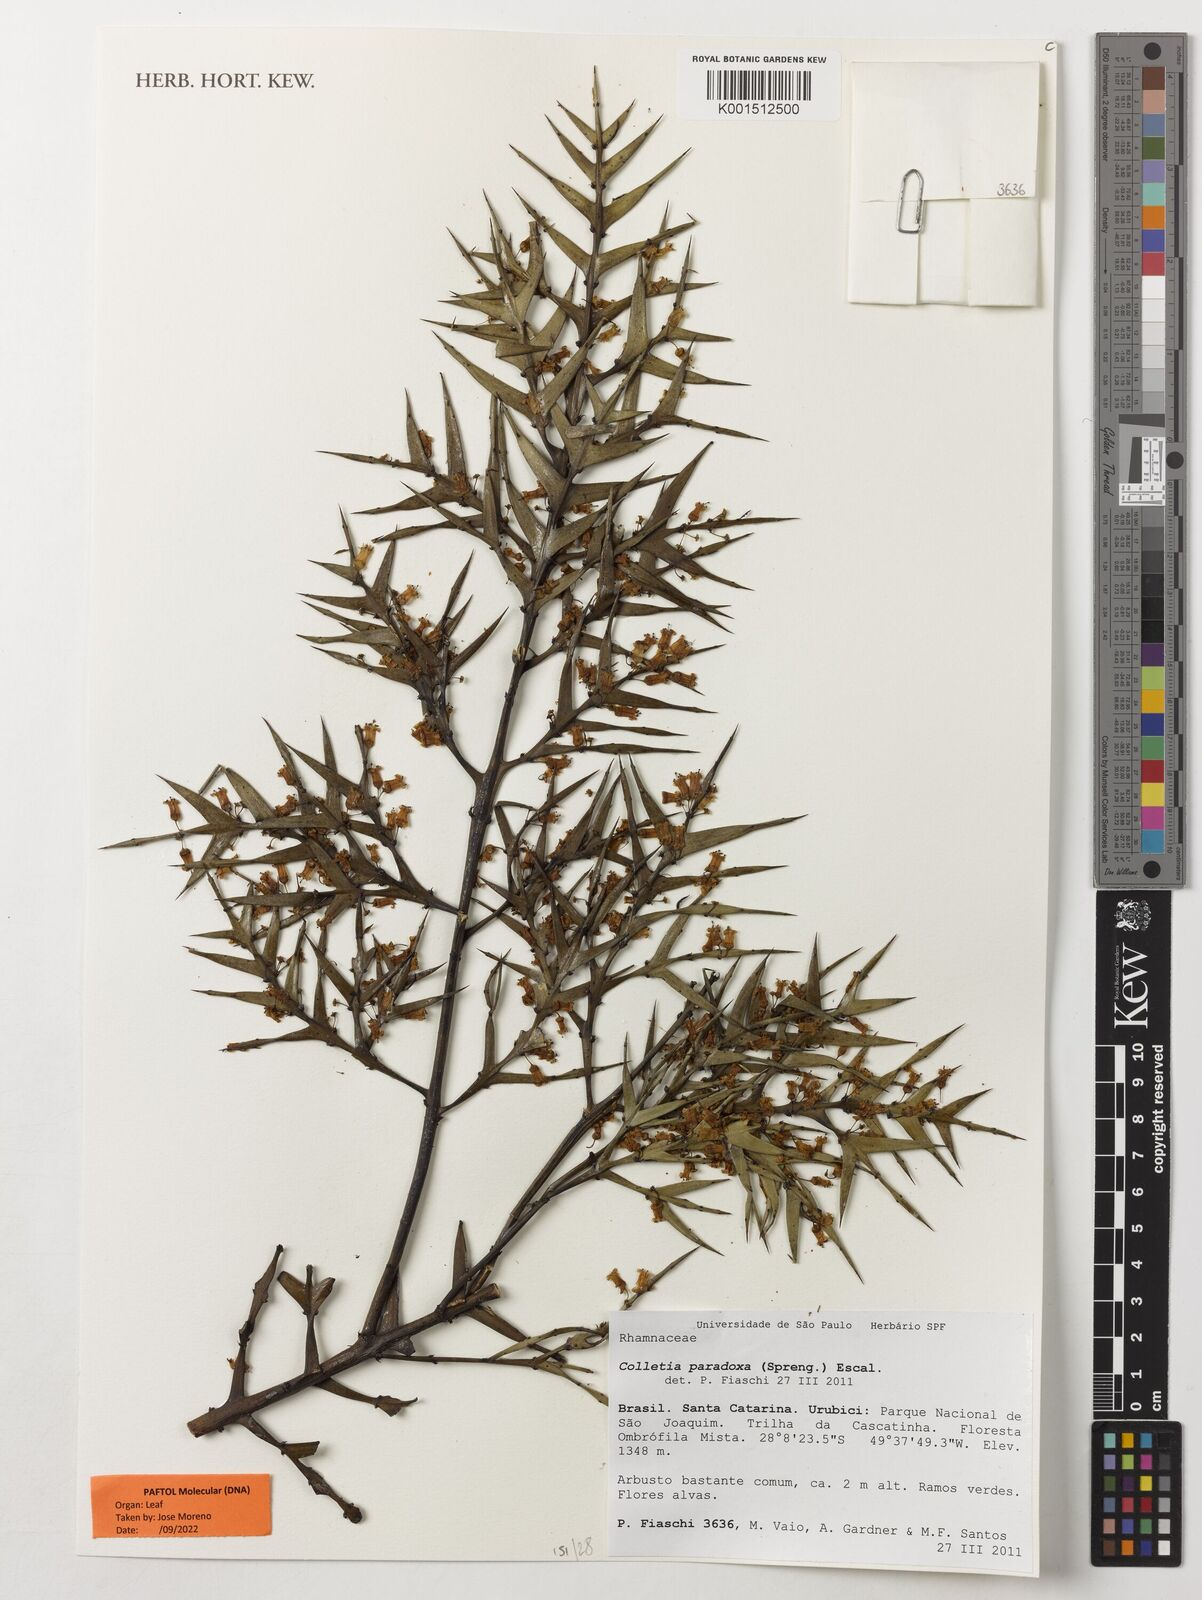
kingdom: Plantae
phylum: Tracheophyta
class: Magnoliopsida
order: Rosales
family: Rhamnaceae
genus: Colletia
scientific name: Colletia paradoxa
